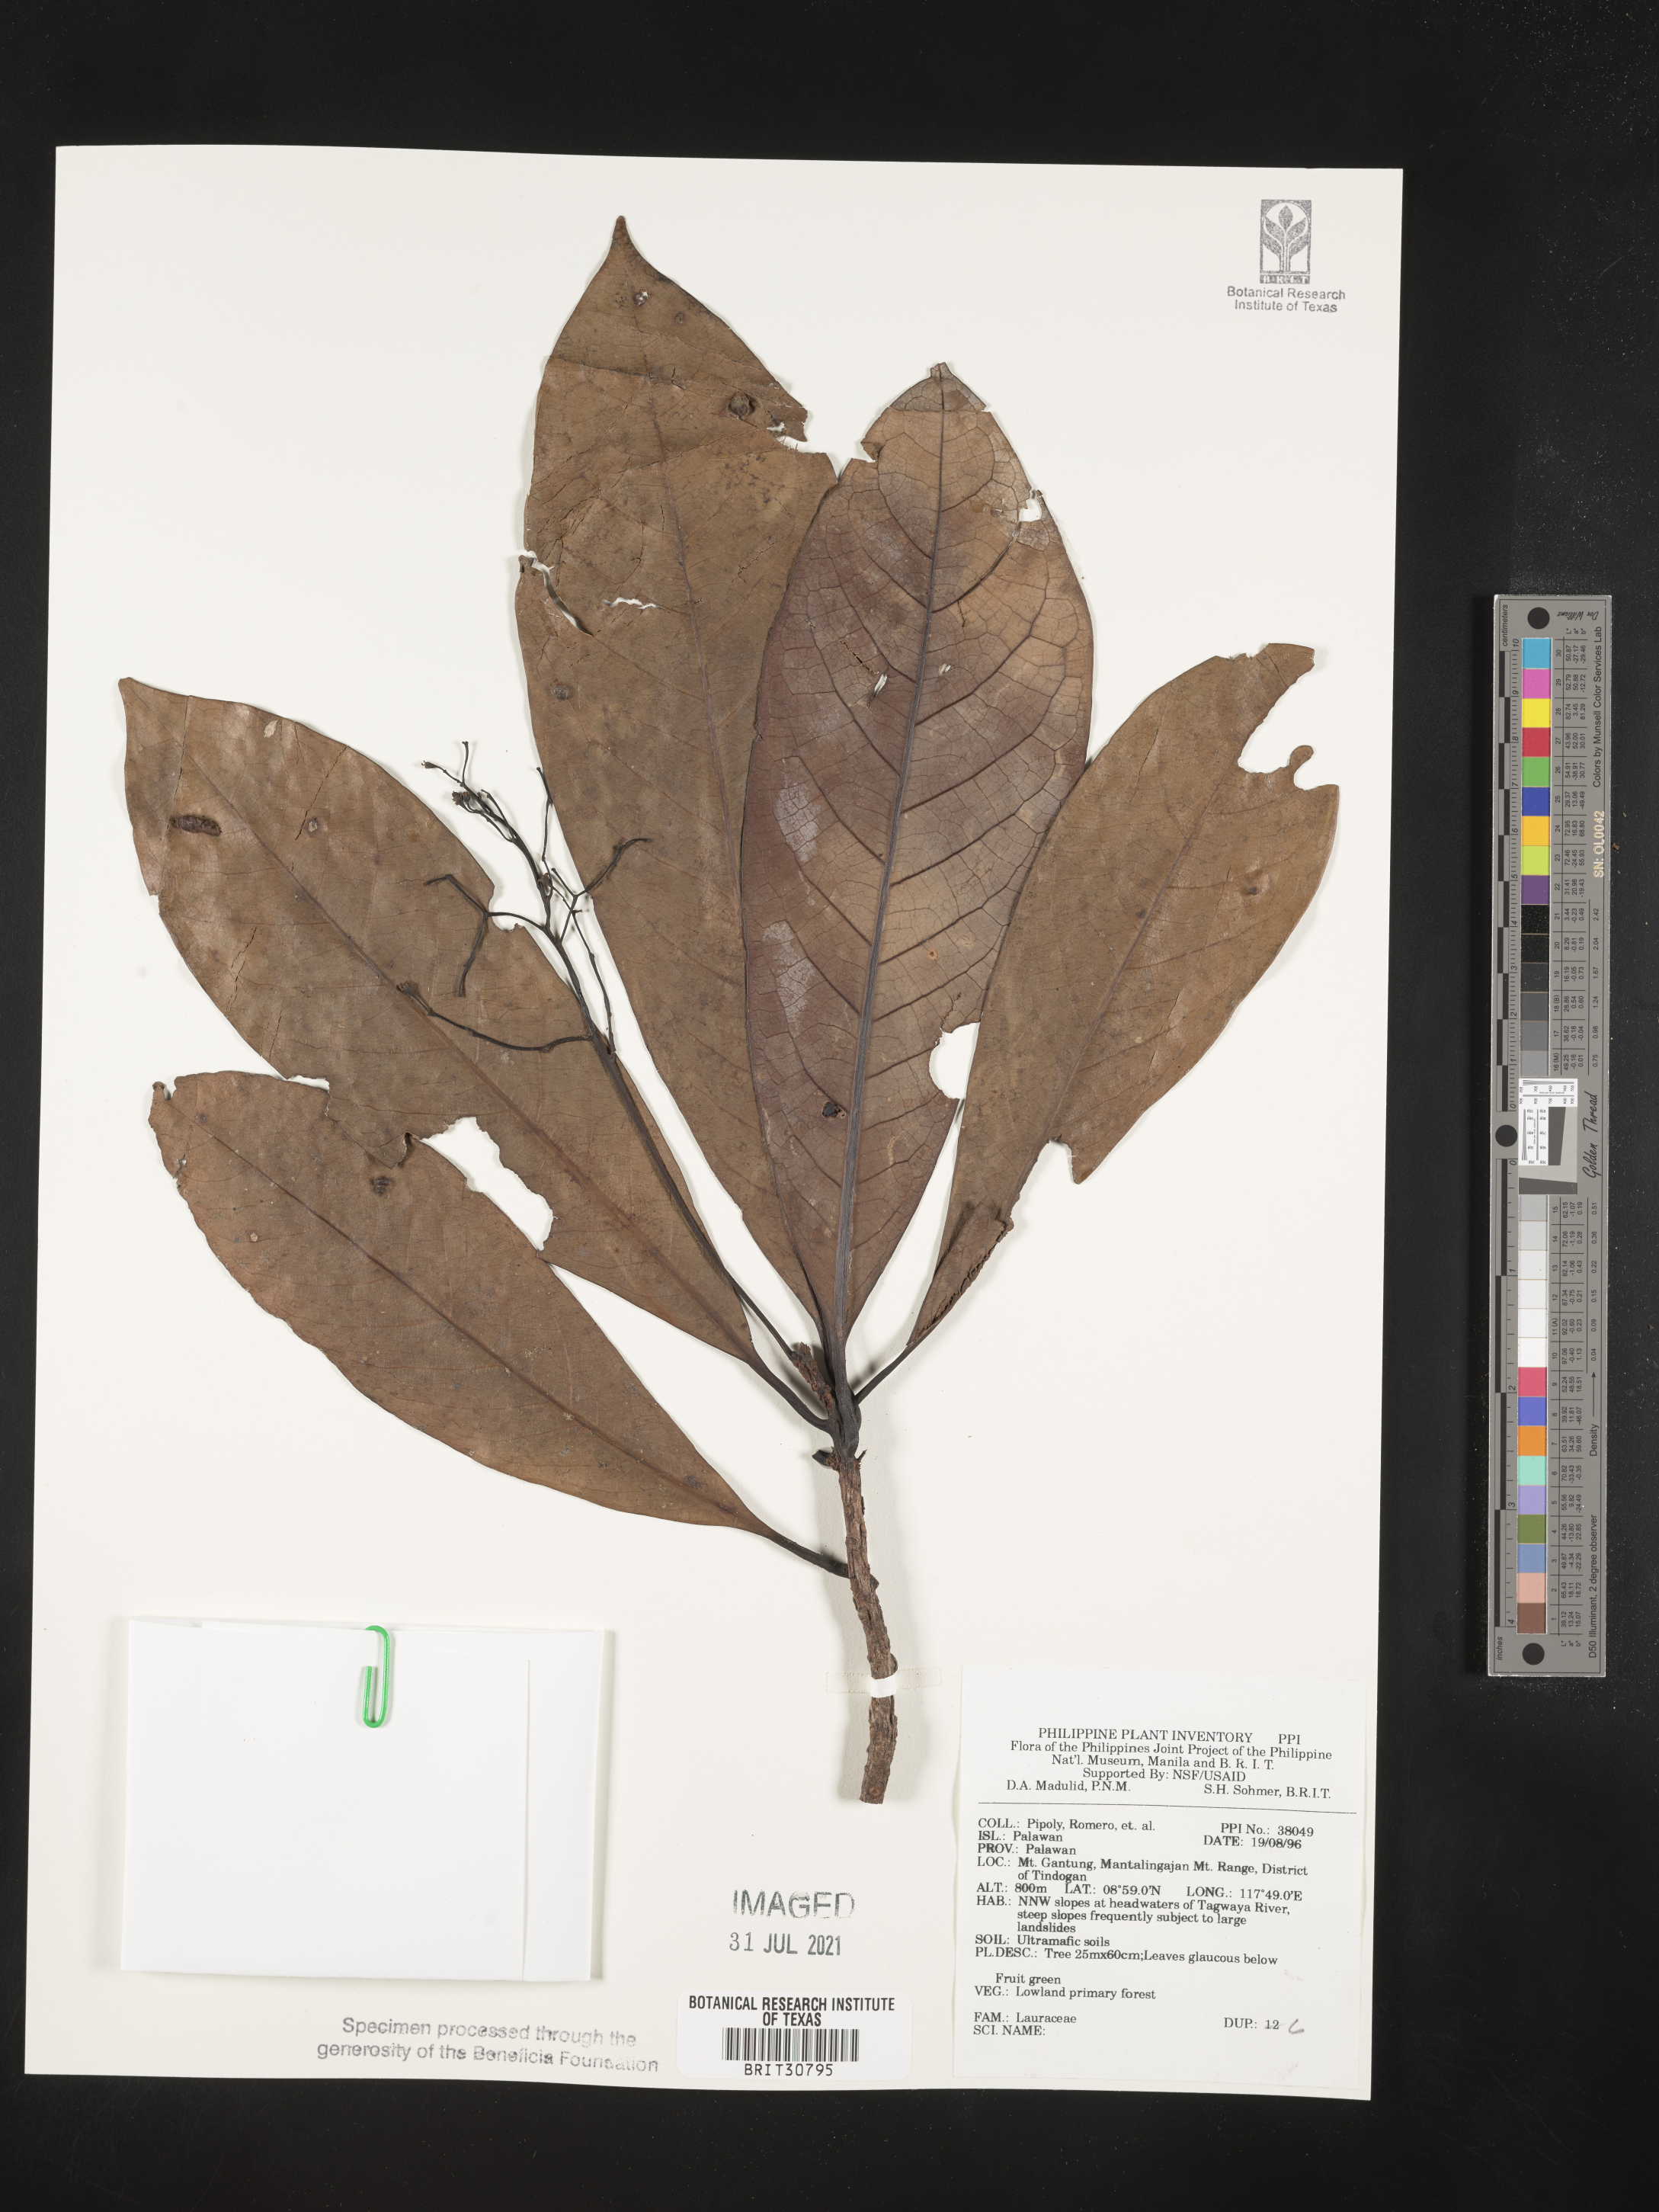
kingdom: Plantae
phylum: Tracheophyta
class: Magnoliopsida
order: Laurales
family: Lauraceae
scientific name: Lauraceae
